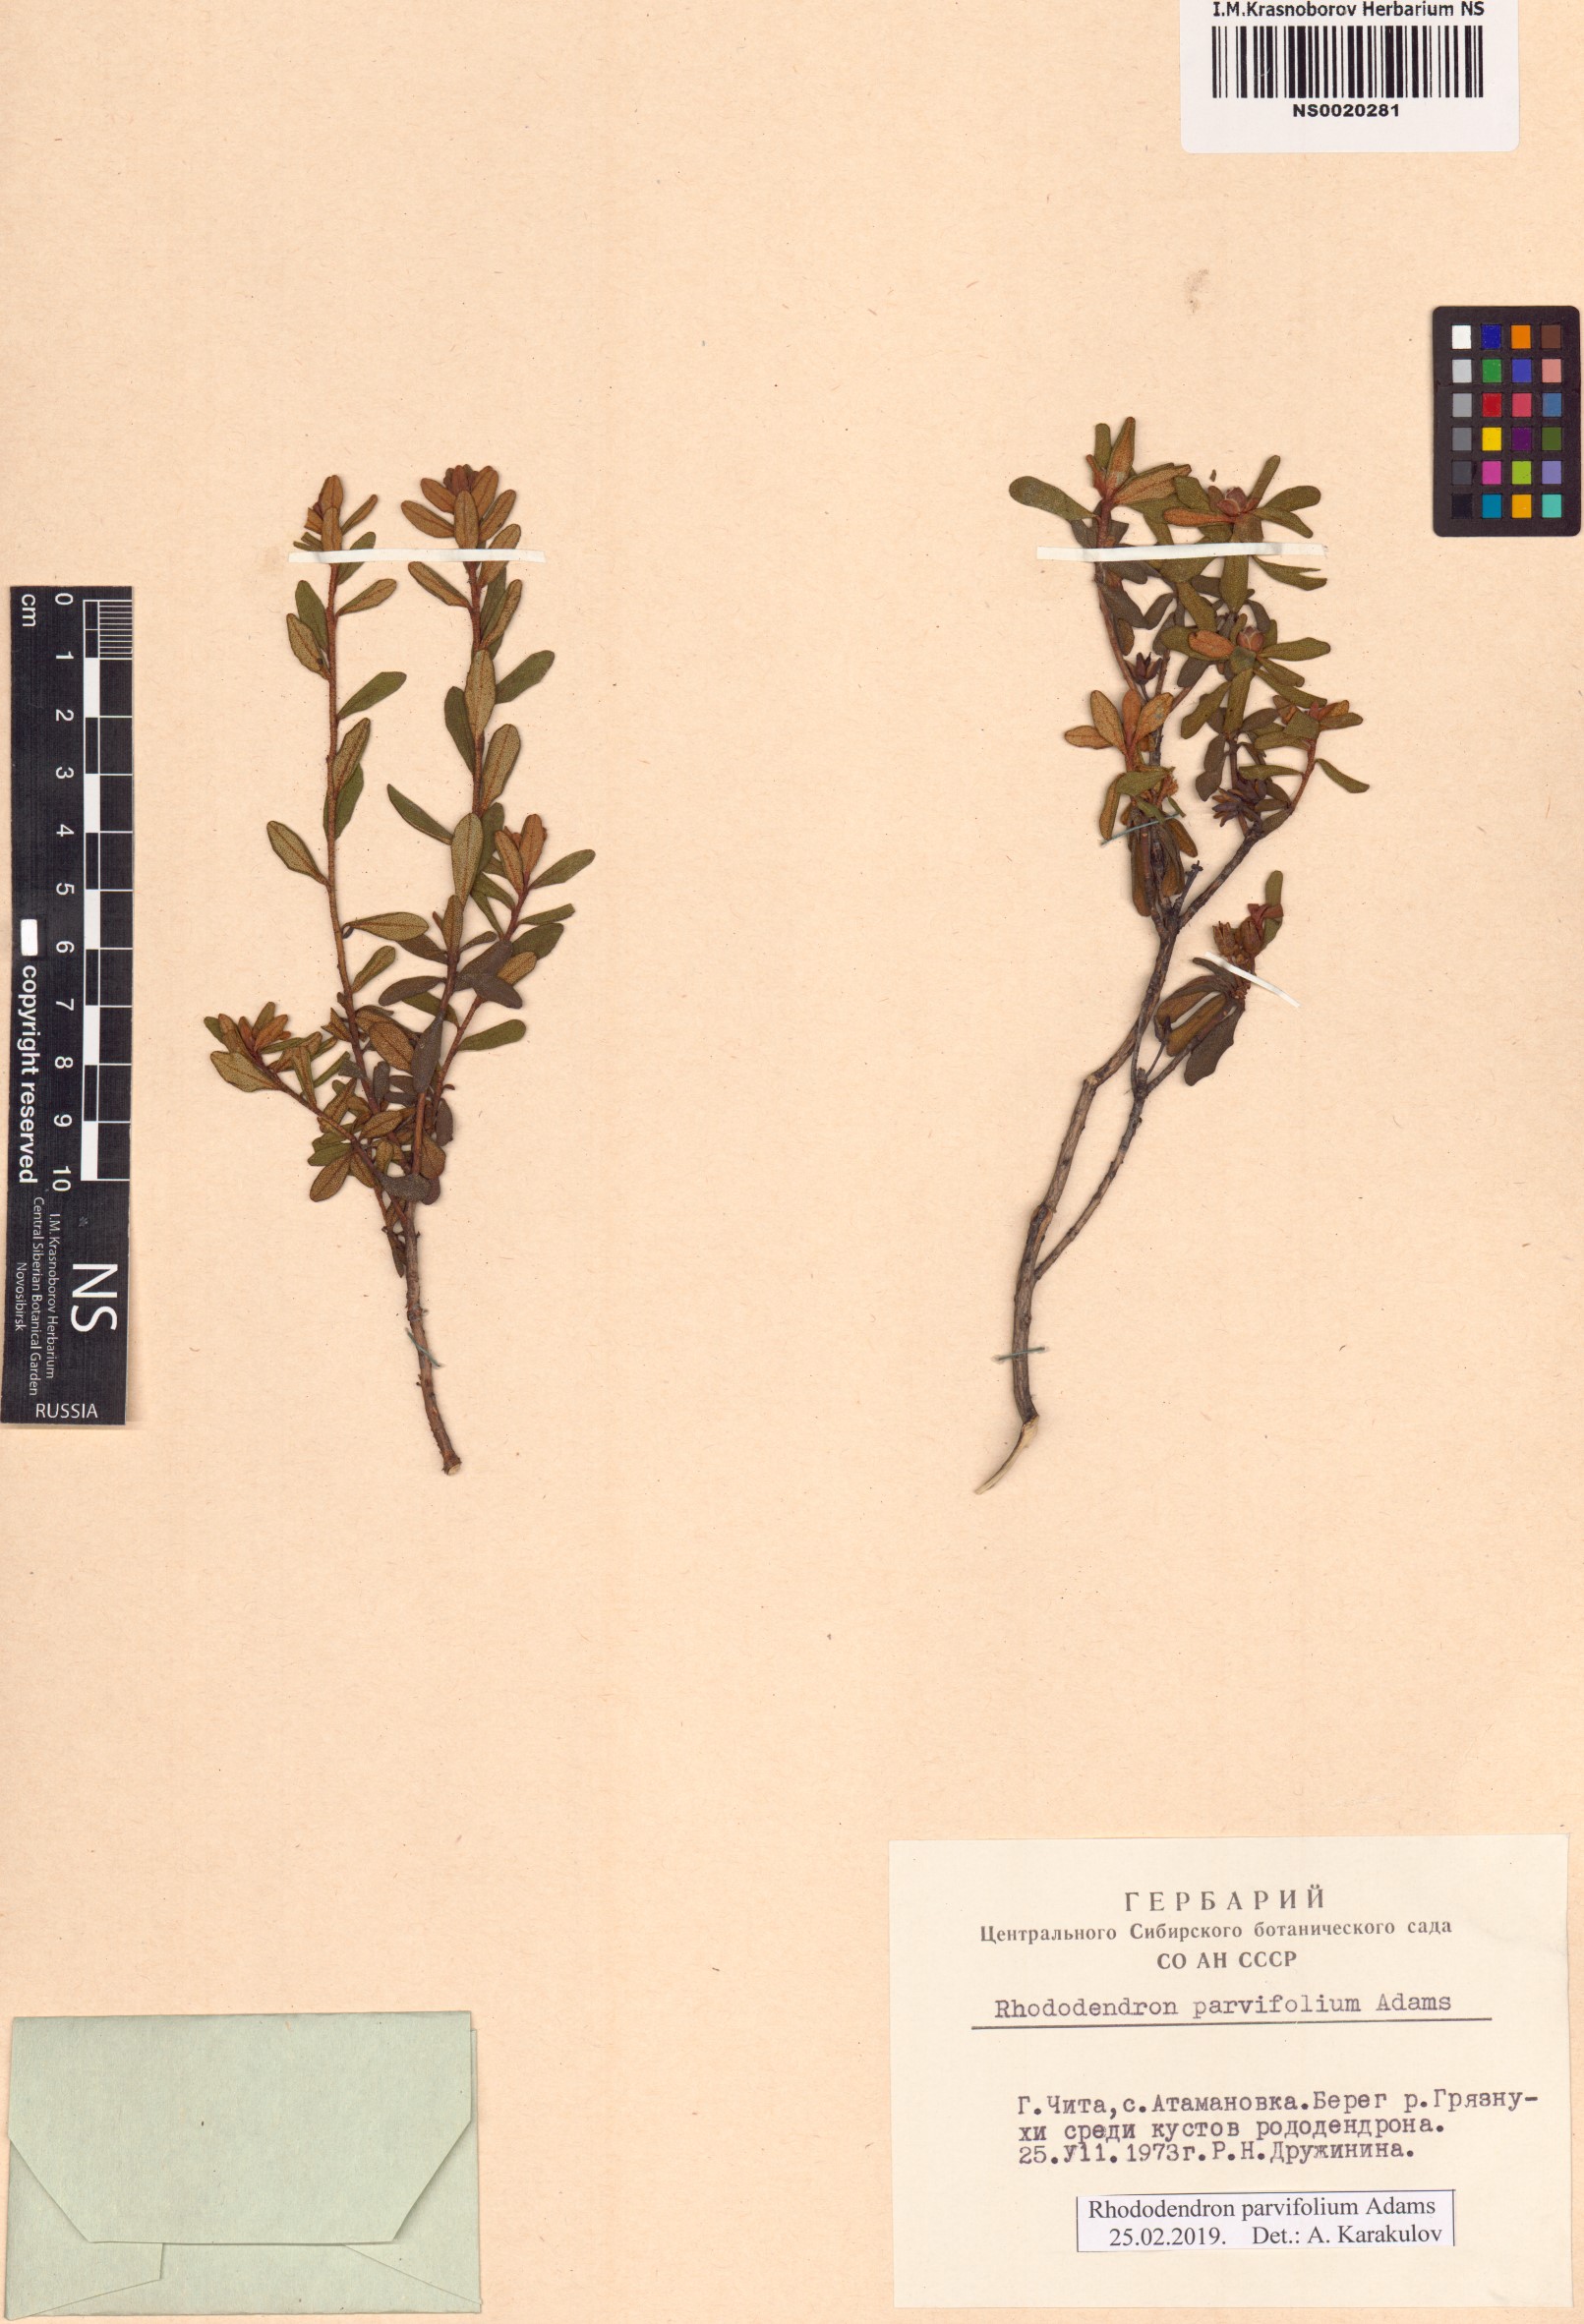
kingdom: Plantae
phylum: Tracheophyta
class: Magnoliopsida
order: Ericales
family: Ericaceae
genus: Rhododendron
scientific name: Rhododendron parvifolium
